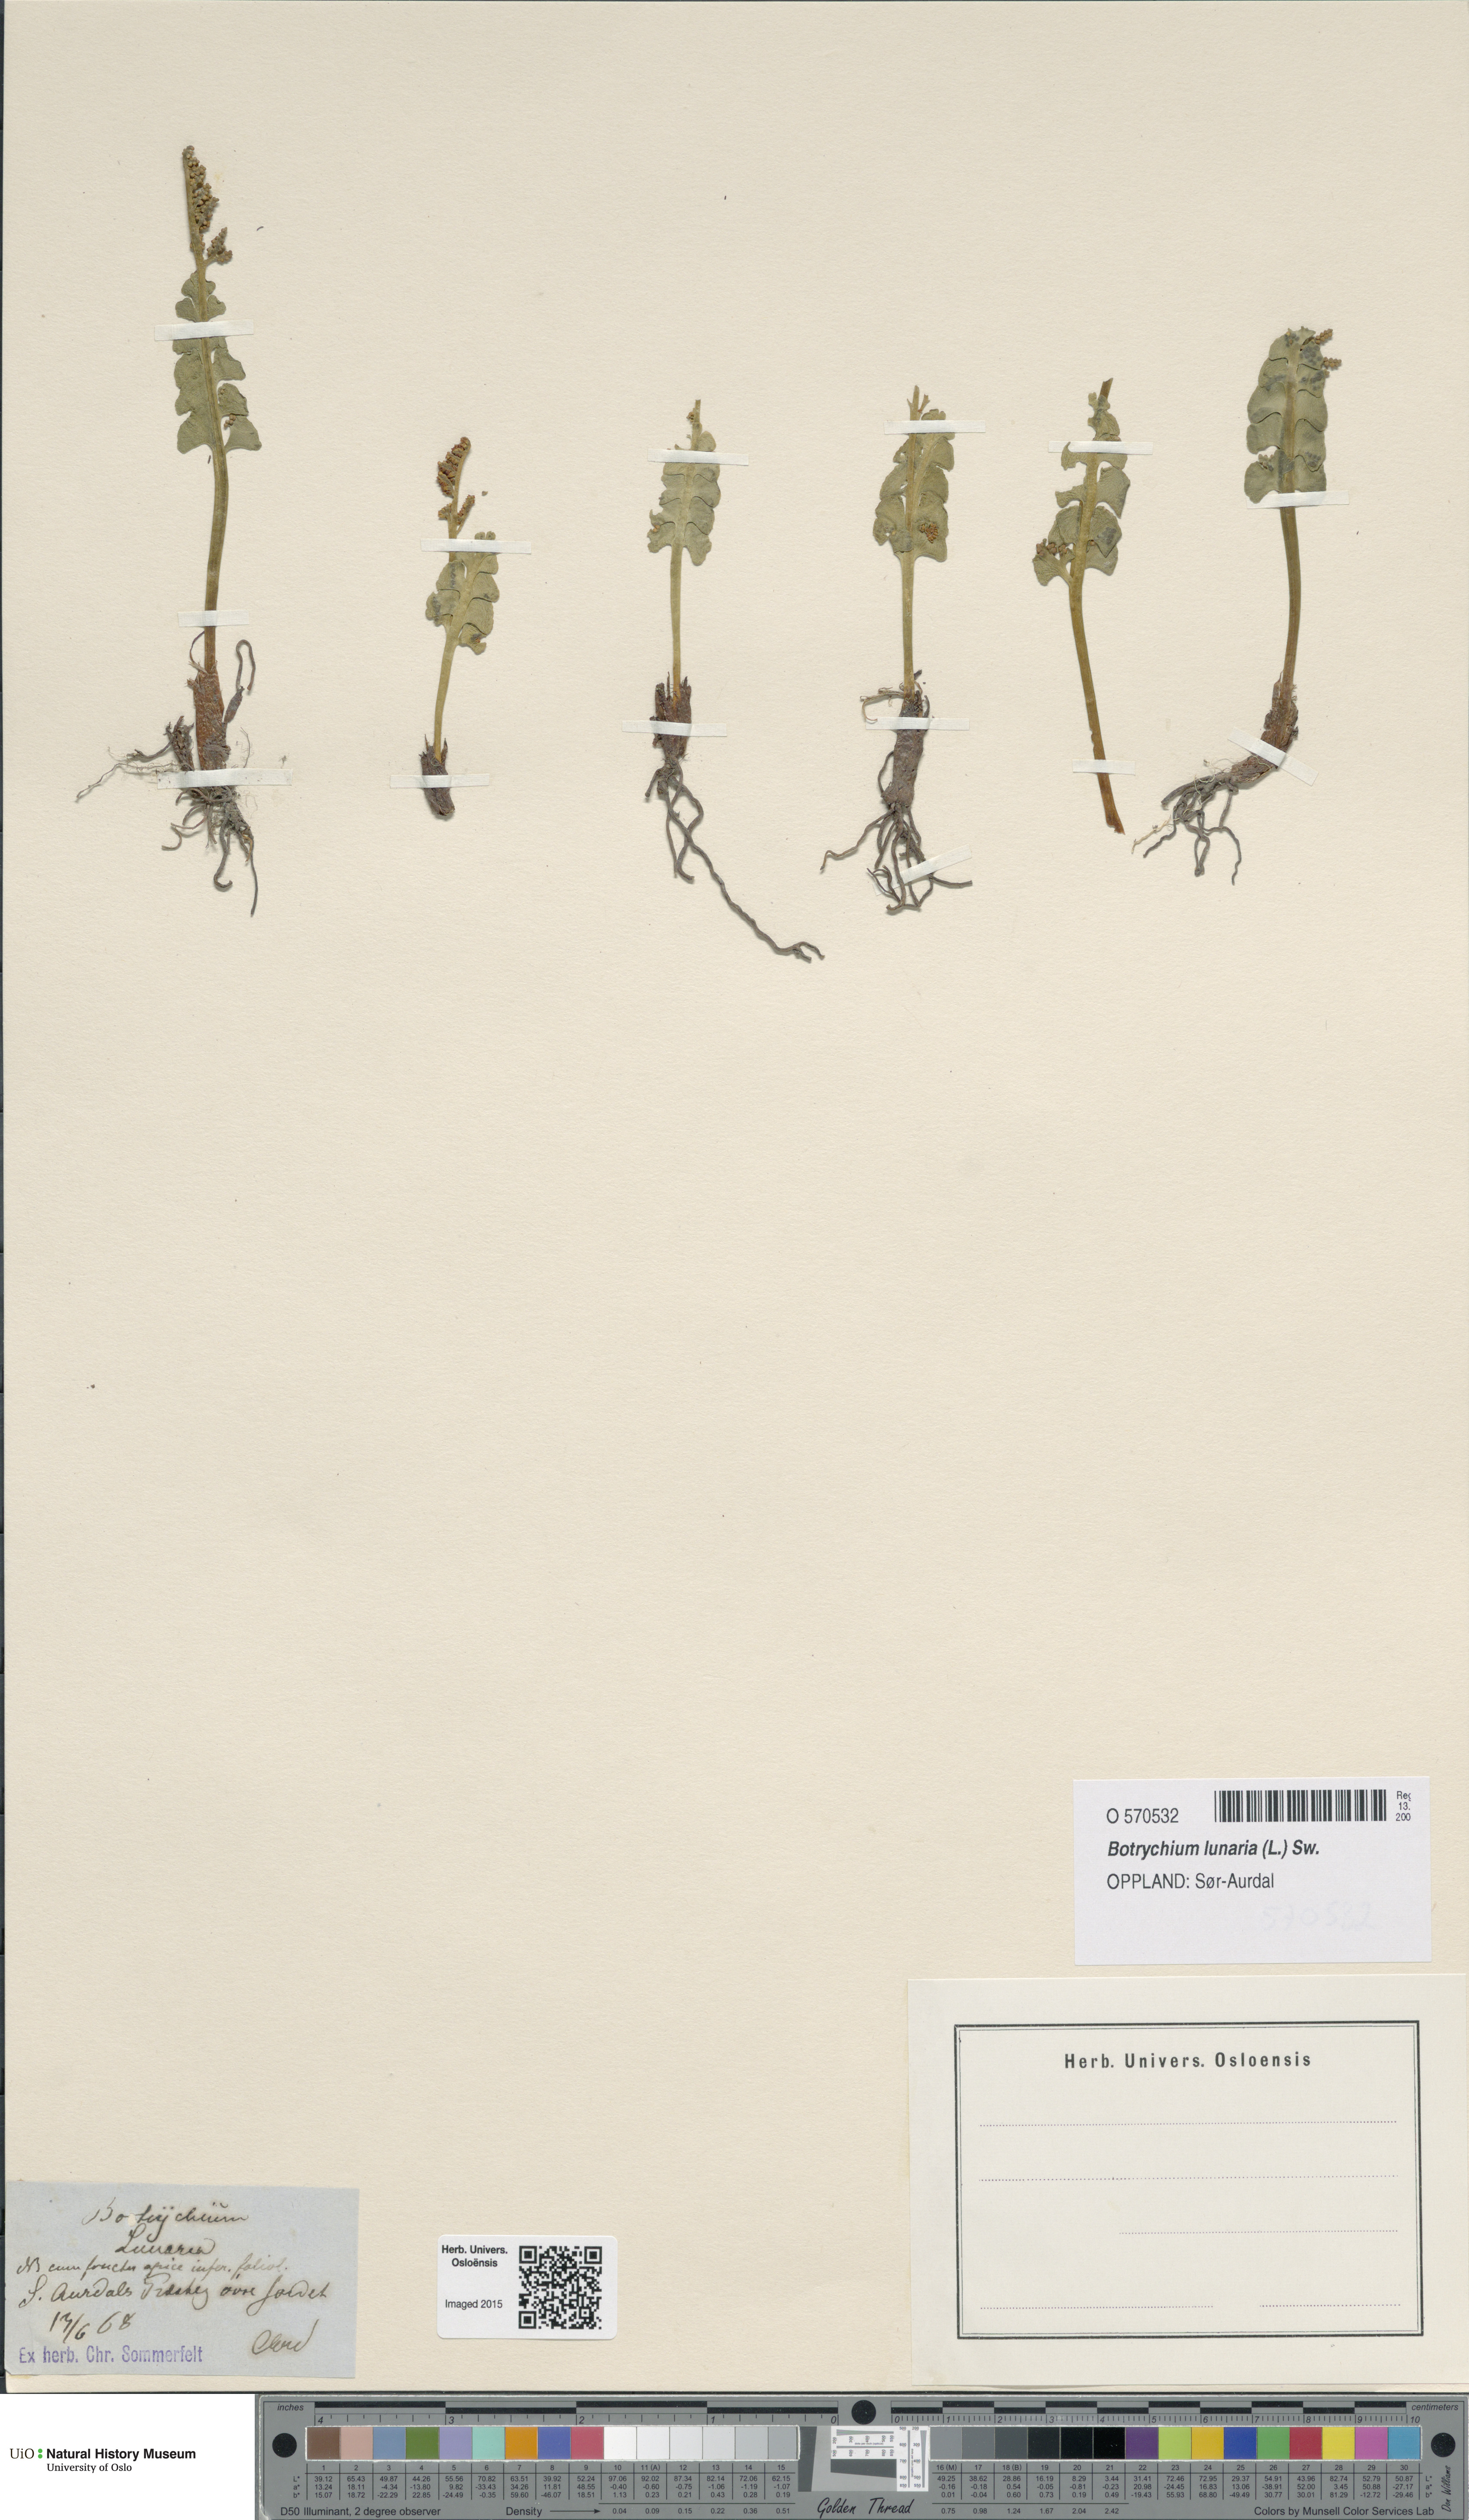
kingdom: Plantae
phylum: Tracheophyta
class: Polypodiopsida
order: Ophioglossales
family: Ophioglossaceae
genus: Botrychium
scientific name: Botrychium lunaria
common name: Moonwort
